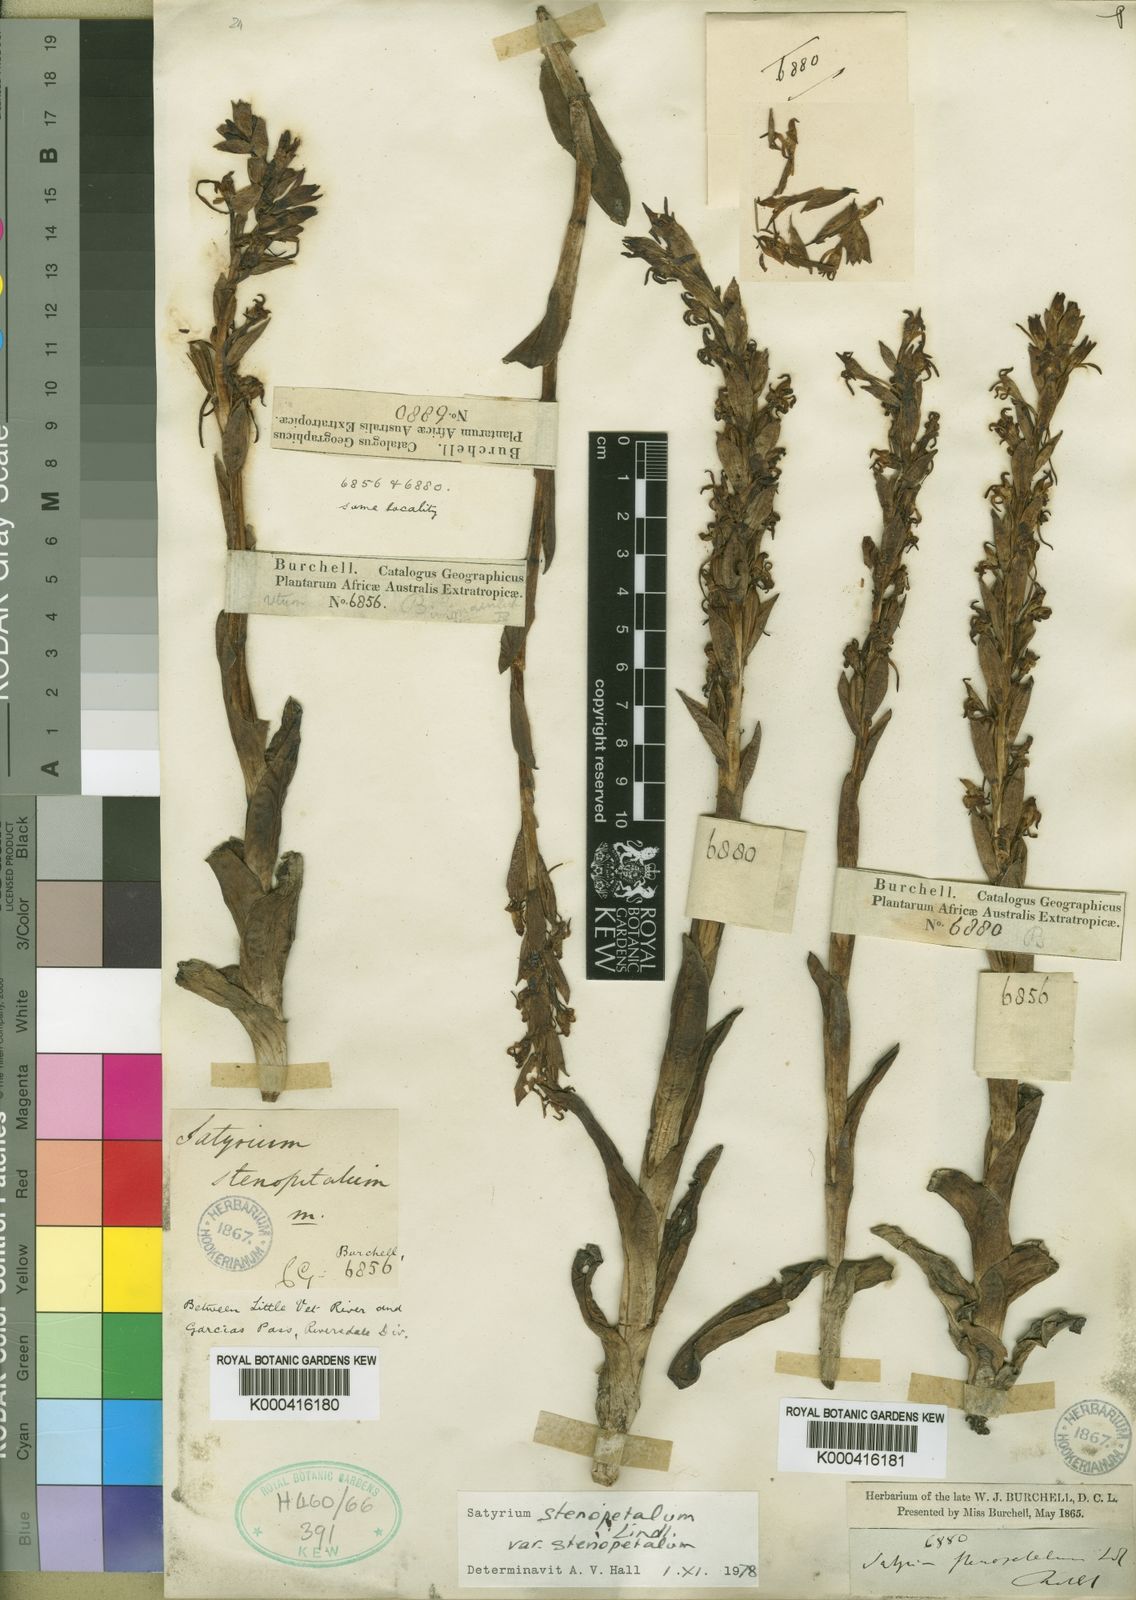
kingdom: Plantae
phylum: Tracheophyta
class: Liliopsida
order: Asparagales
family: Orchidaceae
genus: Satyrium
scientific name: Satyrium stenopetalum
